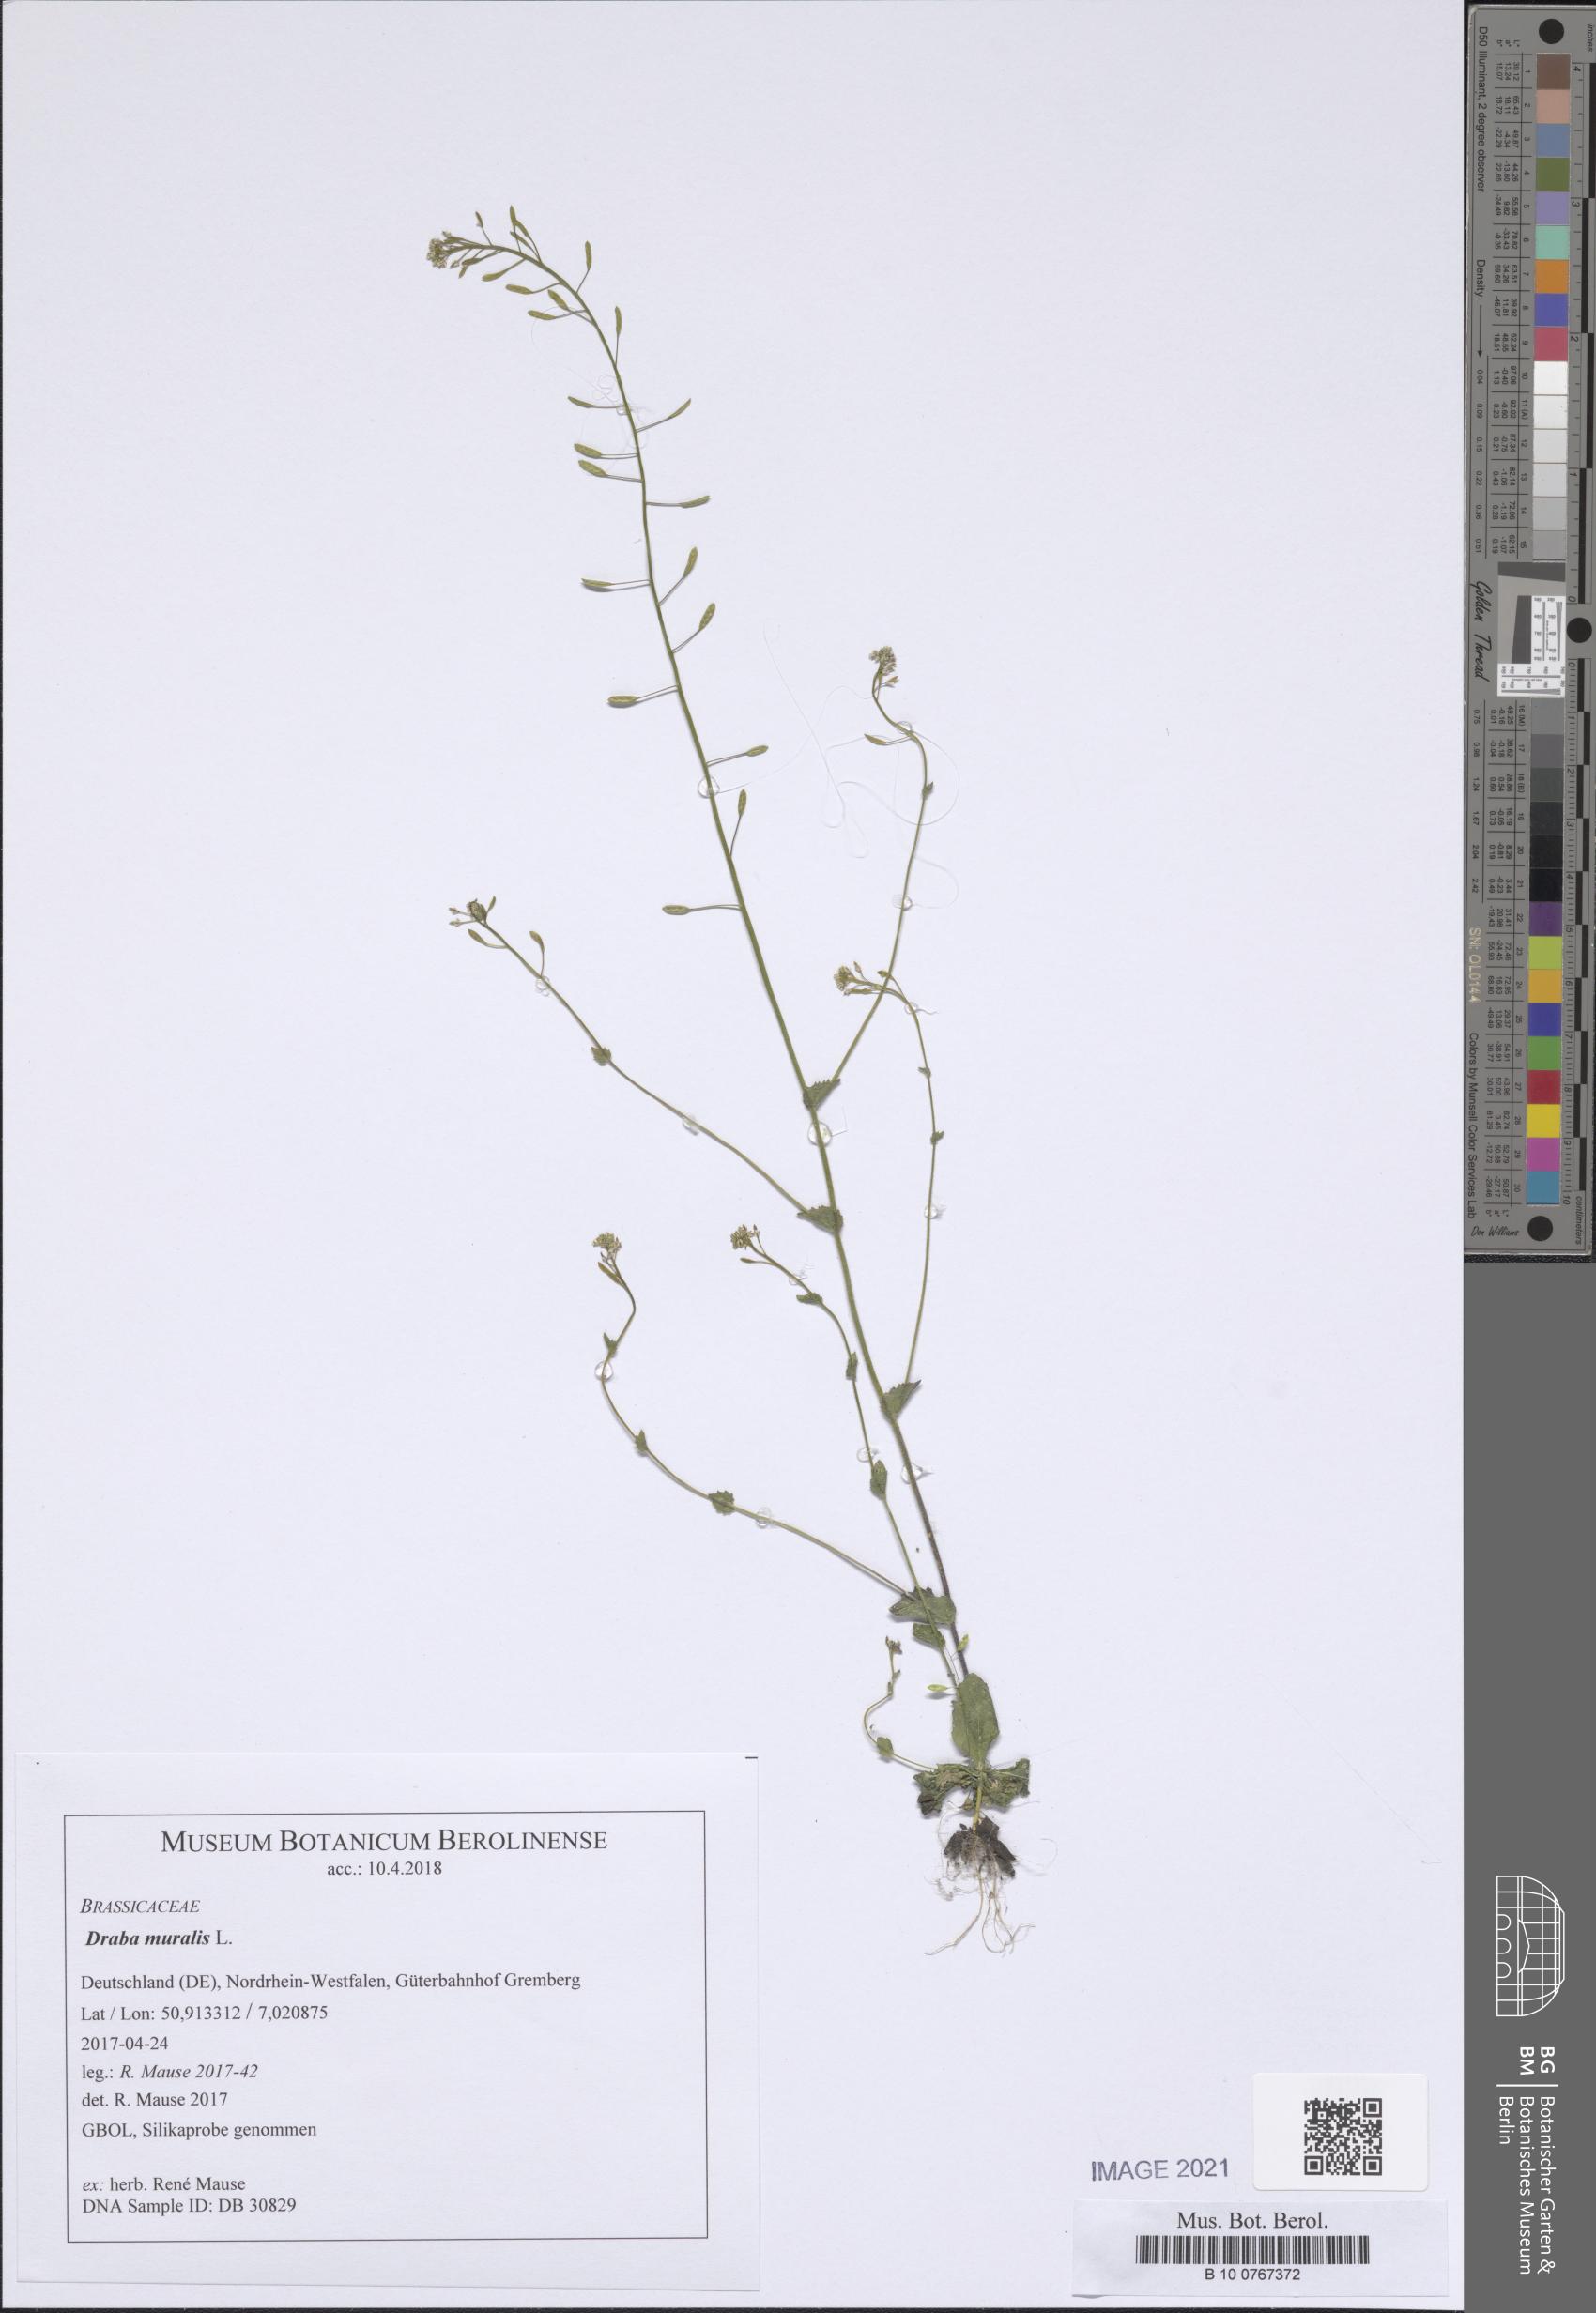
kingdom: Plantae
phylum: Tracheophyta
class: Magnoliopsida
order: Brassicales
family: Brassicaceae
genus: Drabella
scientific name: Drabella muralis
